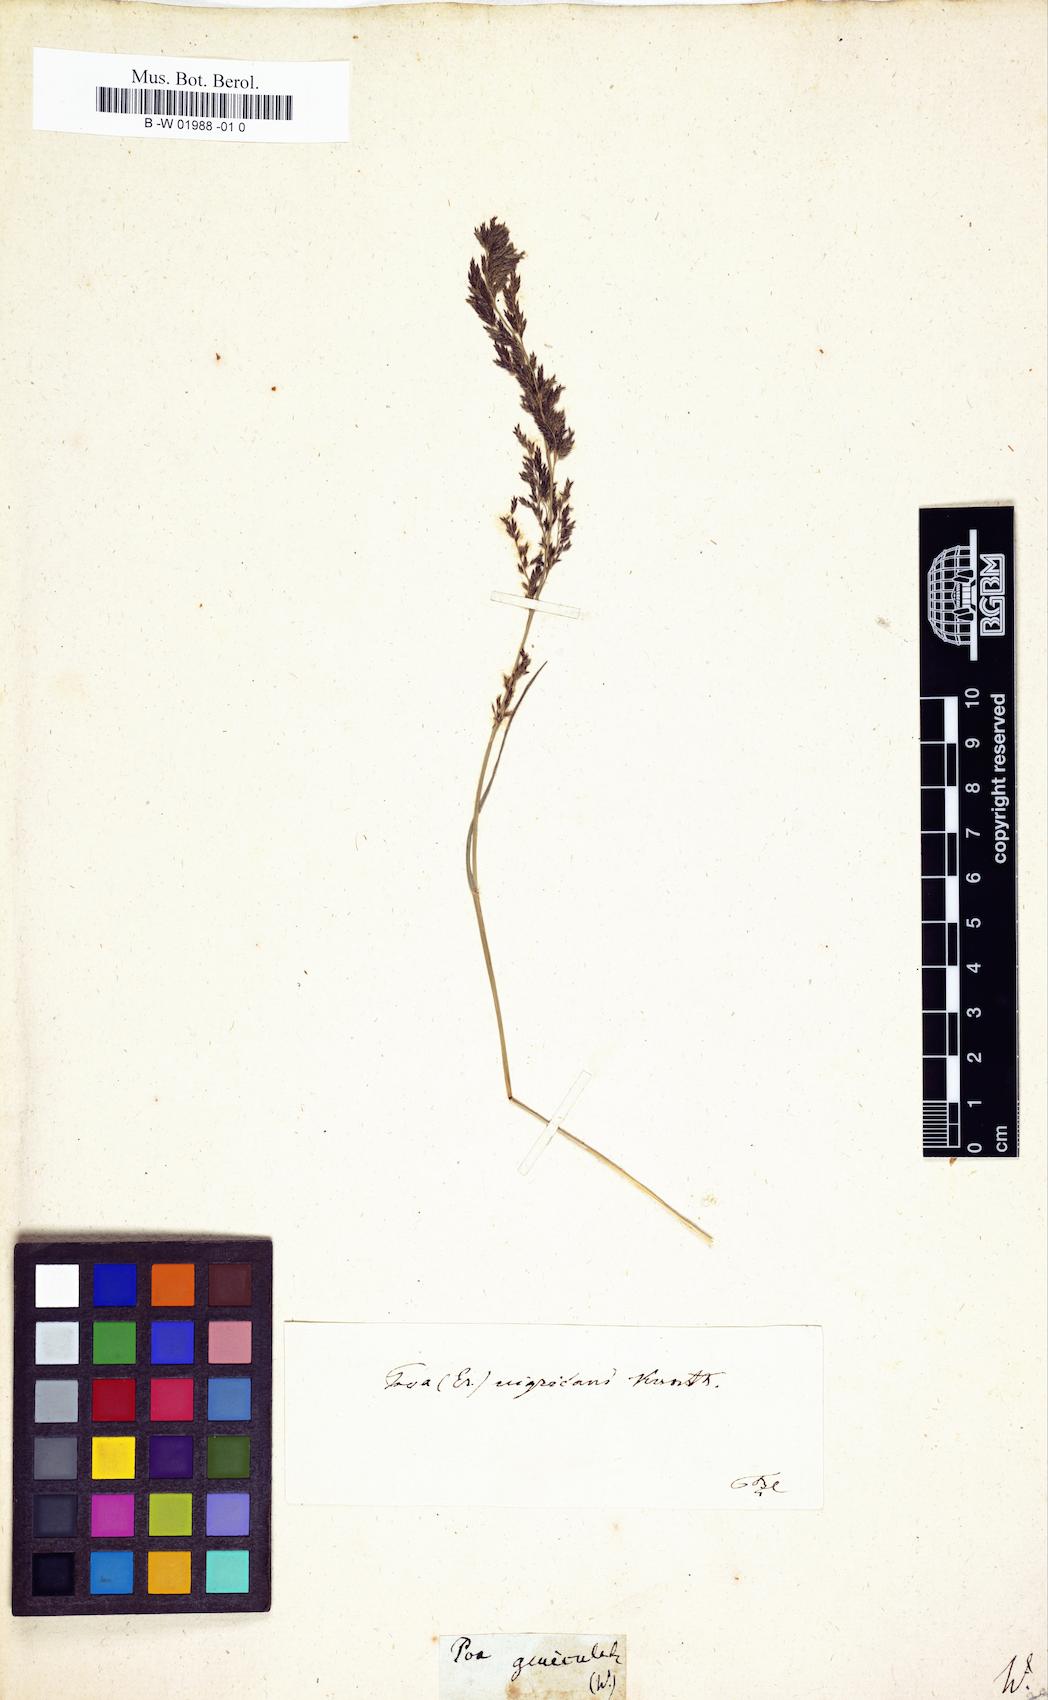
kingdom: Plantae
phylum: Tracheophyta
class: Liliopsida
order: Poales
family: Poaceae
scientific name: Poaceae
